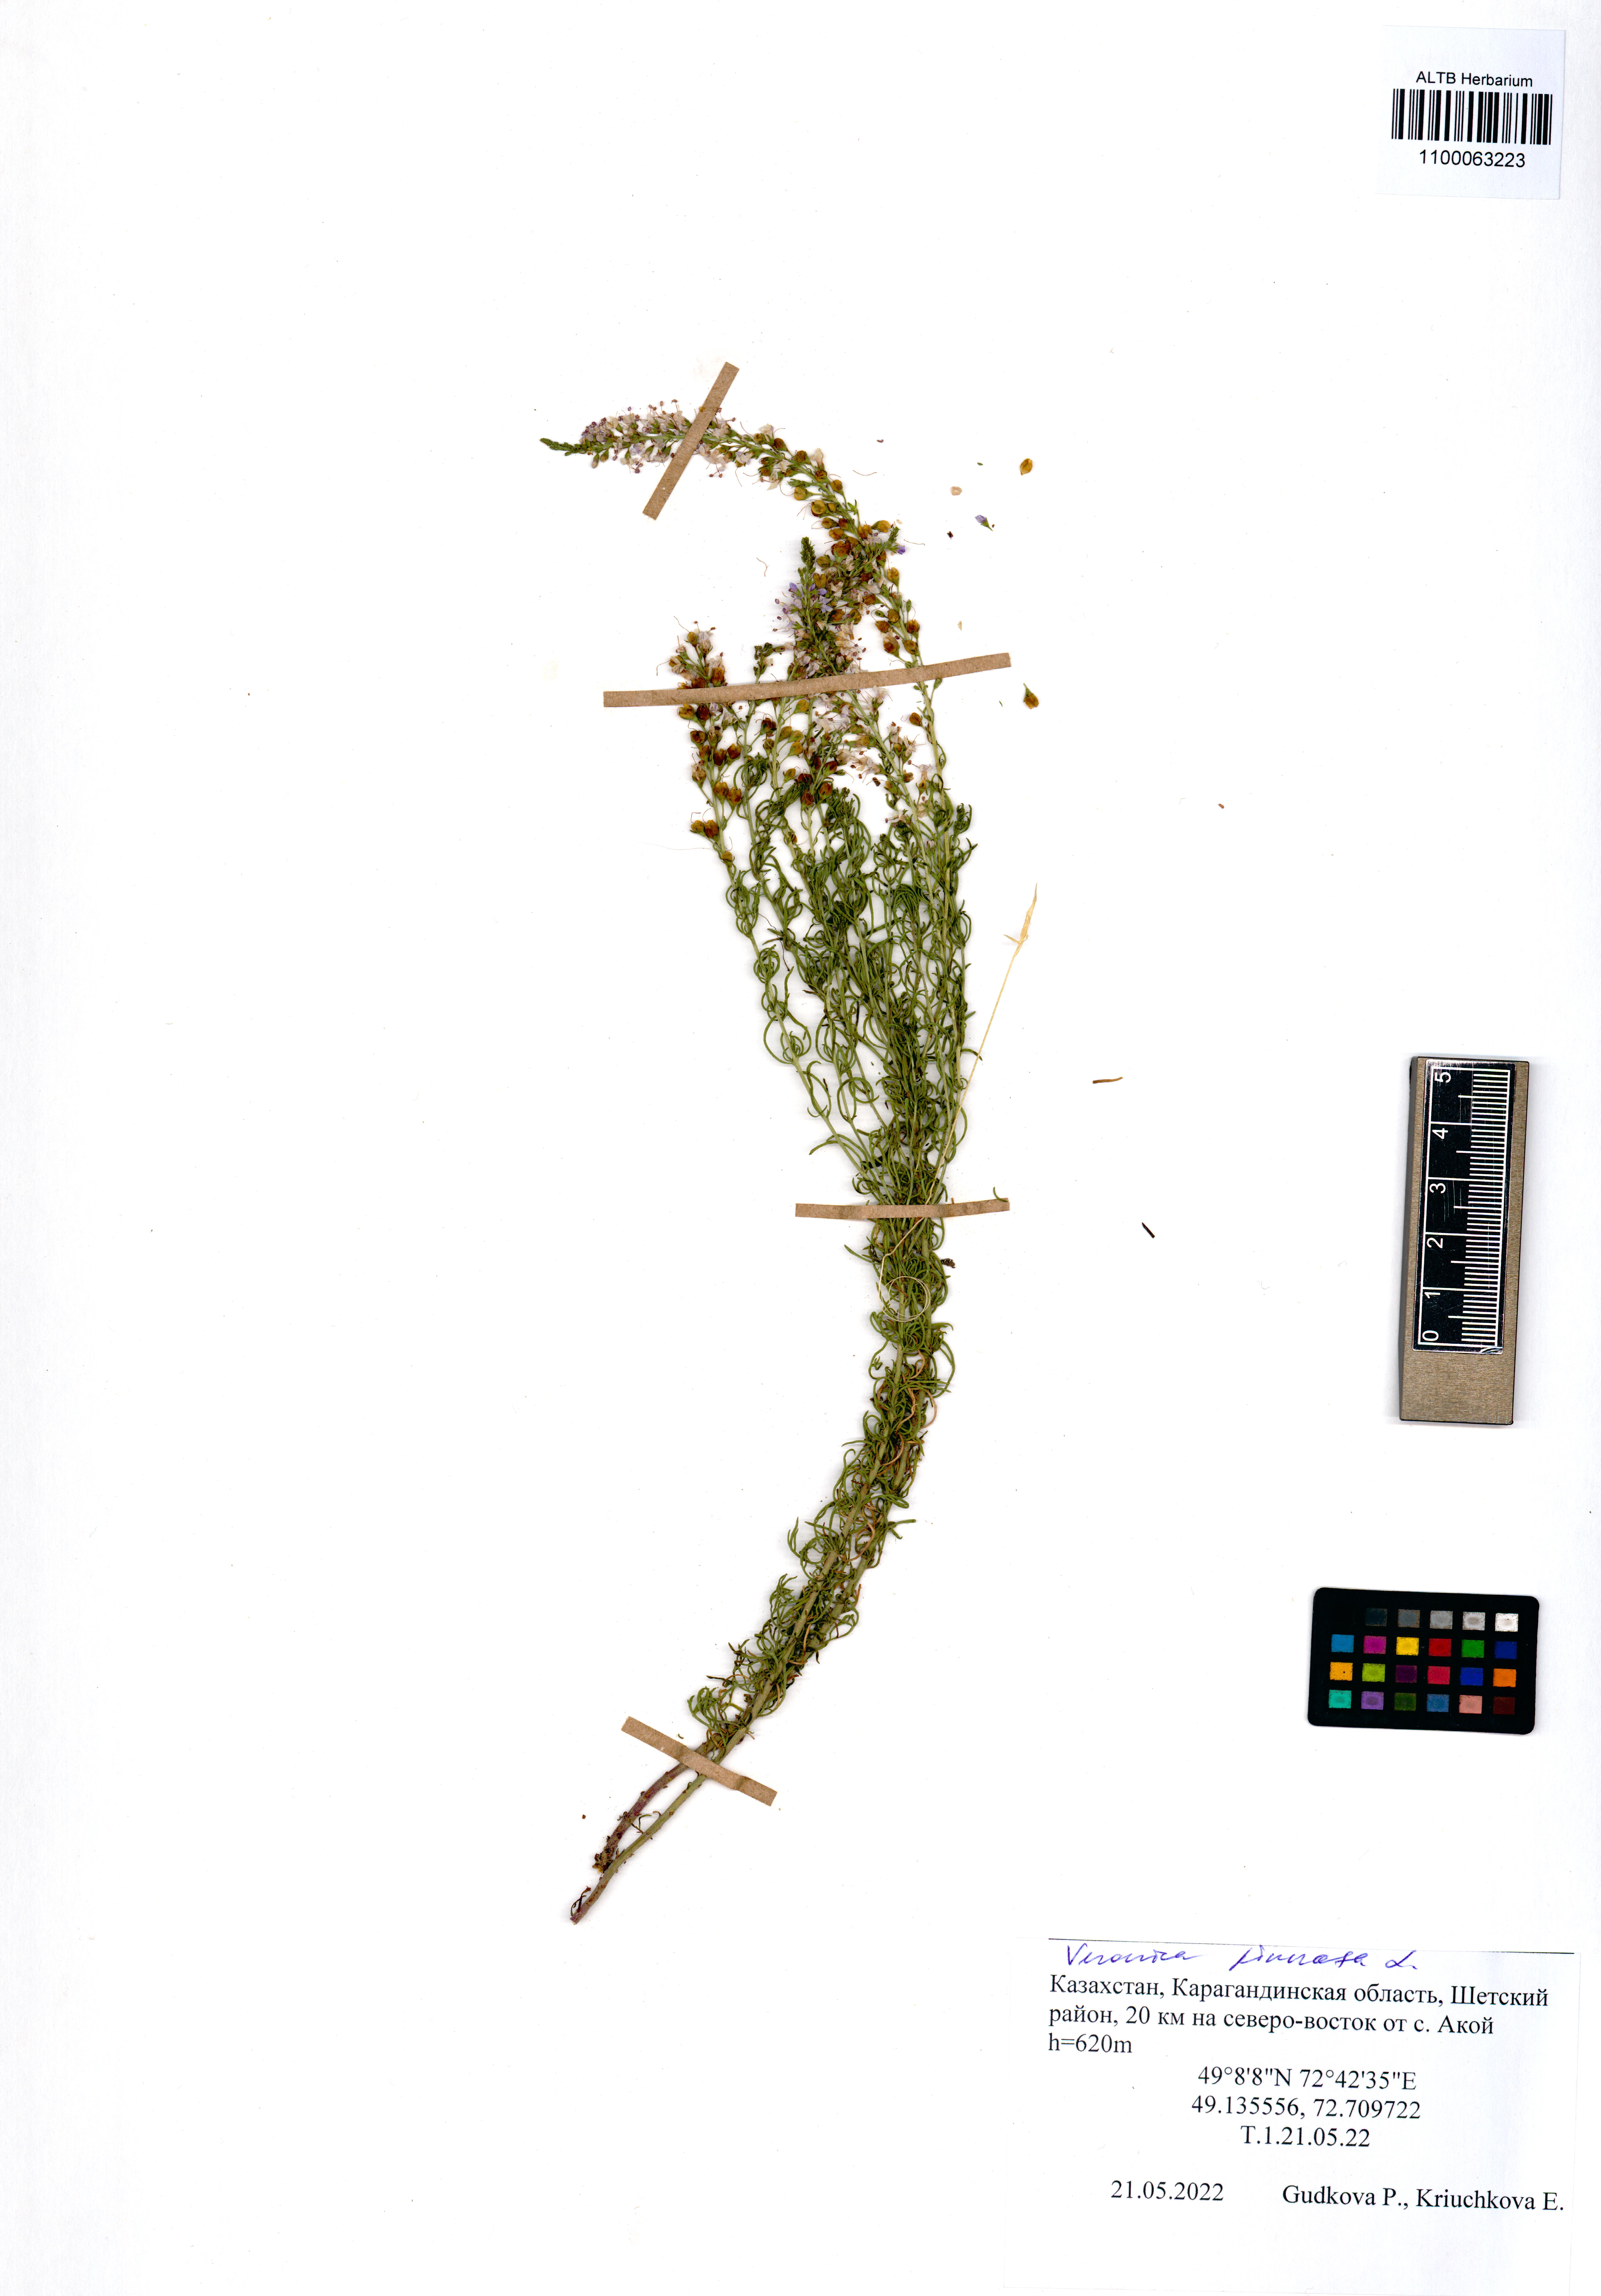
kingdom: Plantae
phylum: Tracheophyta
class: Magnoliopsida
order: Lamiales
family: Plantaginaceae
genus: Veronica
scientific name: Veronica pinnata
